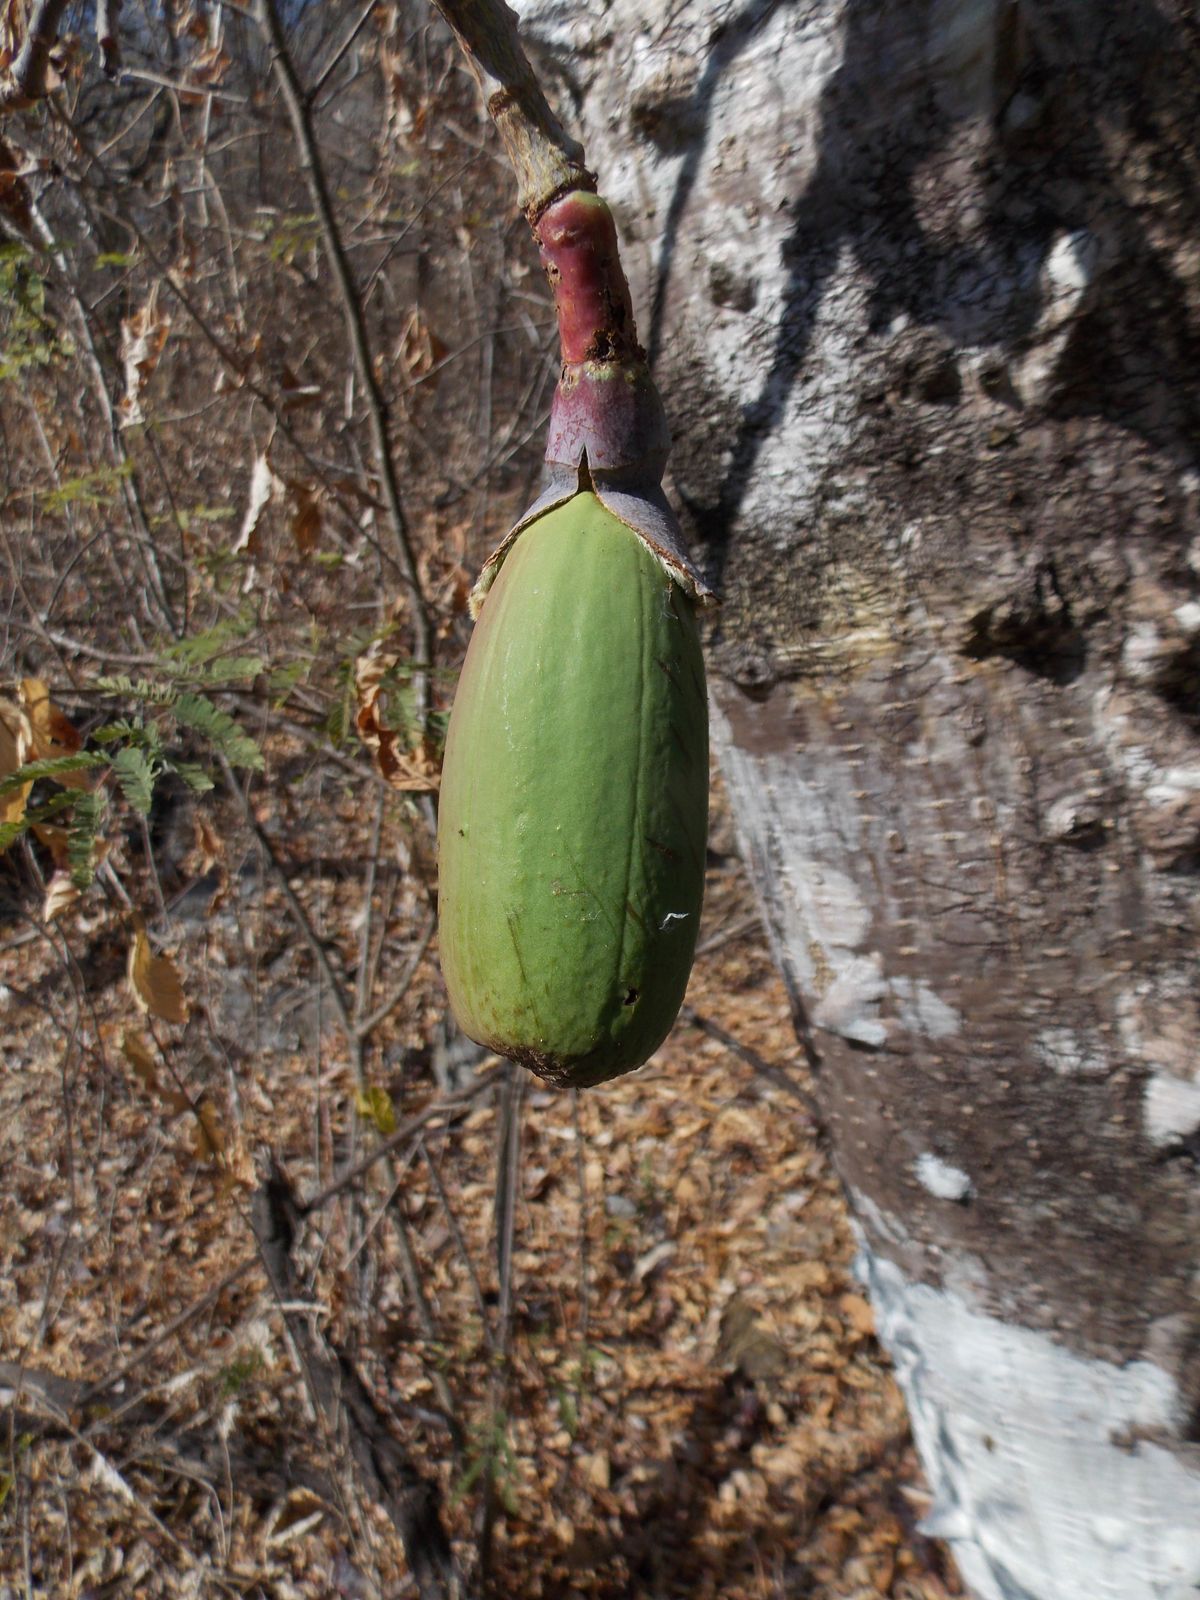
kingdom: Plantae
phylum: Tracheophyta
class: Magnoliopsida
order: Malvales
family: Malvaceae
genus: Ceiba
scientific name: Ceiba aesculifolia
